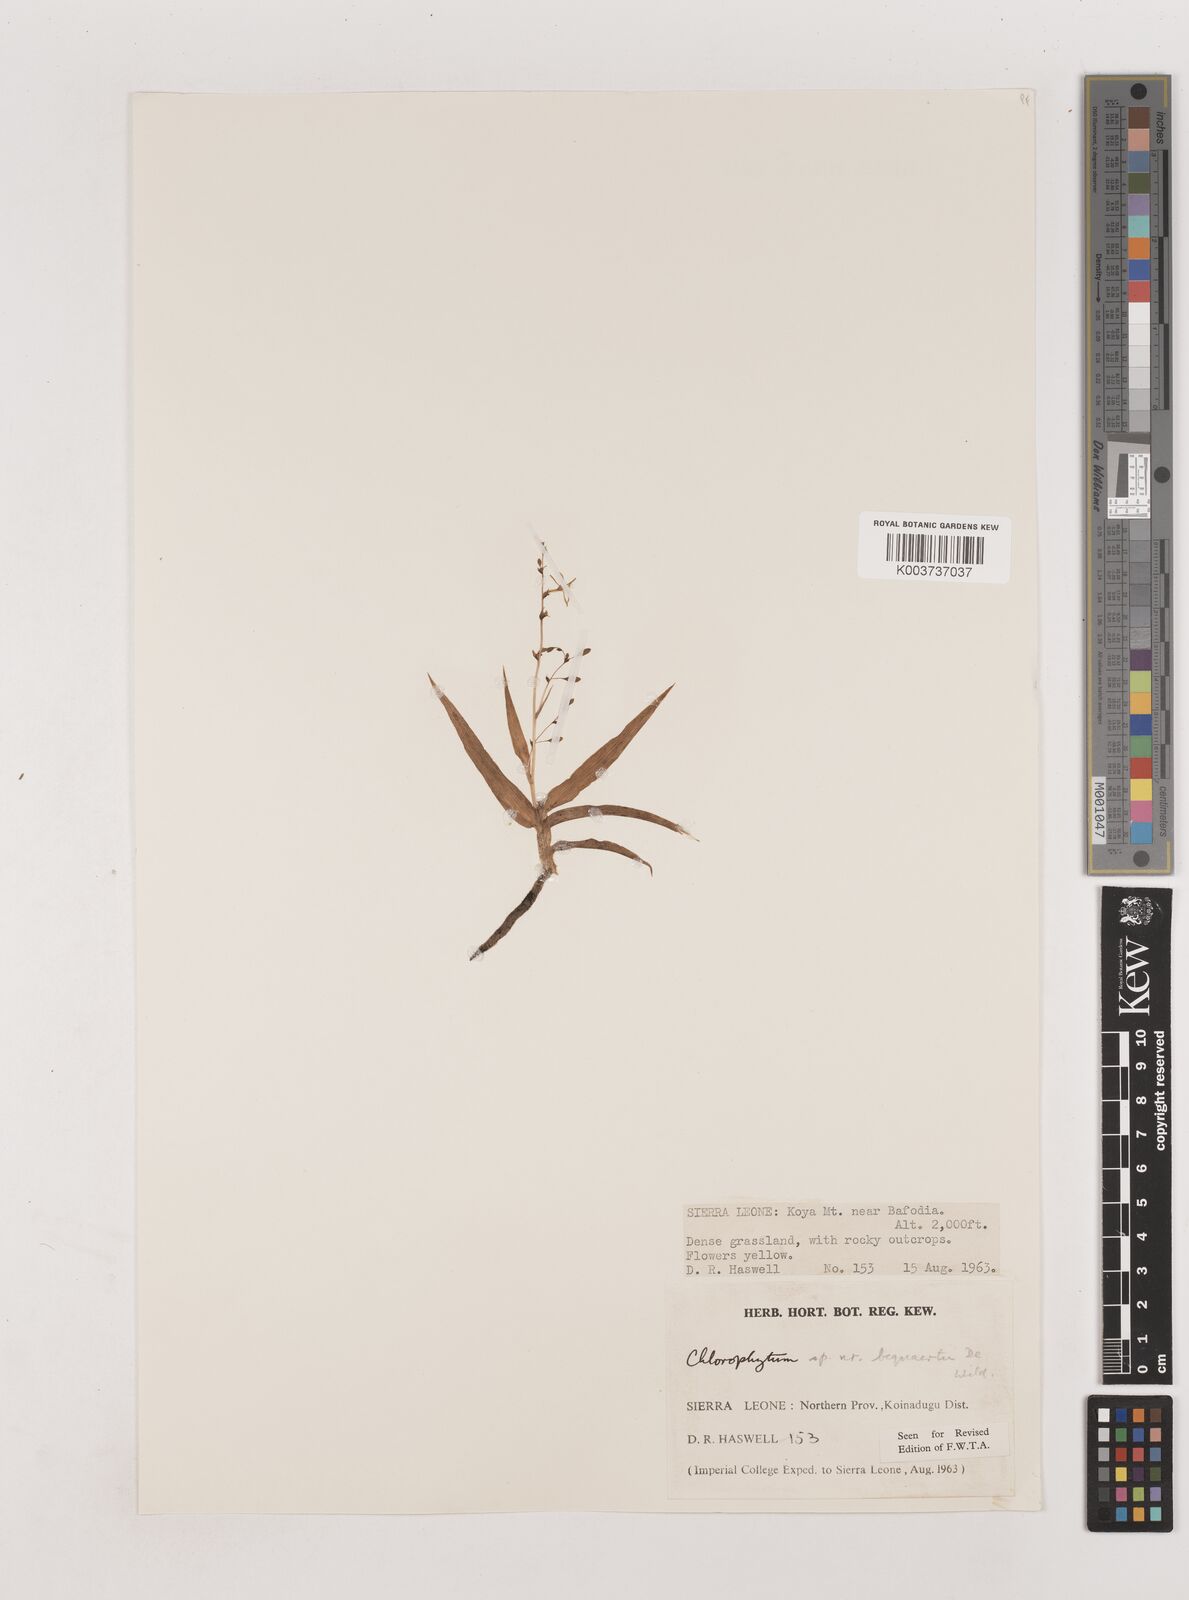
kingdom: Plantae
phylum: Tracheophyta
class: Liliopsida
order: Asparagales
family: Asparagaceae
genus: Chlorophytum
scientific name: Chlorophytum gallabatense
